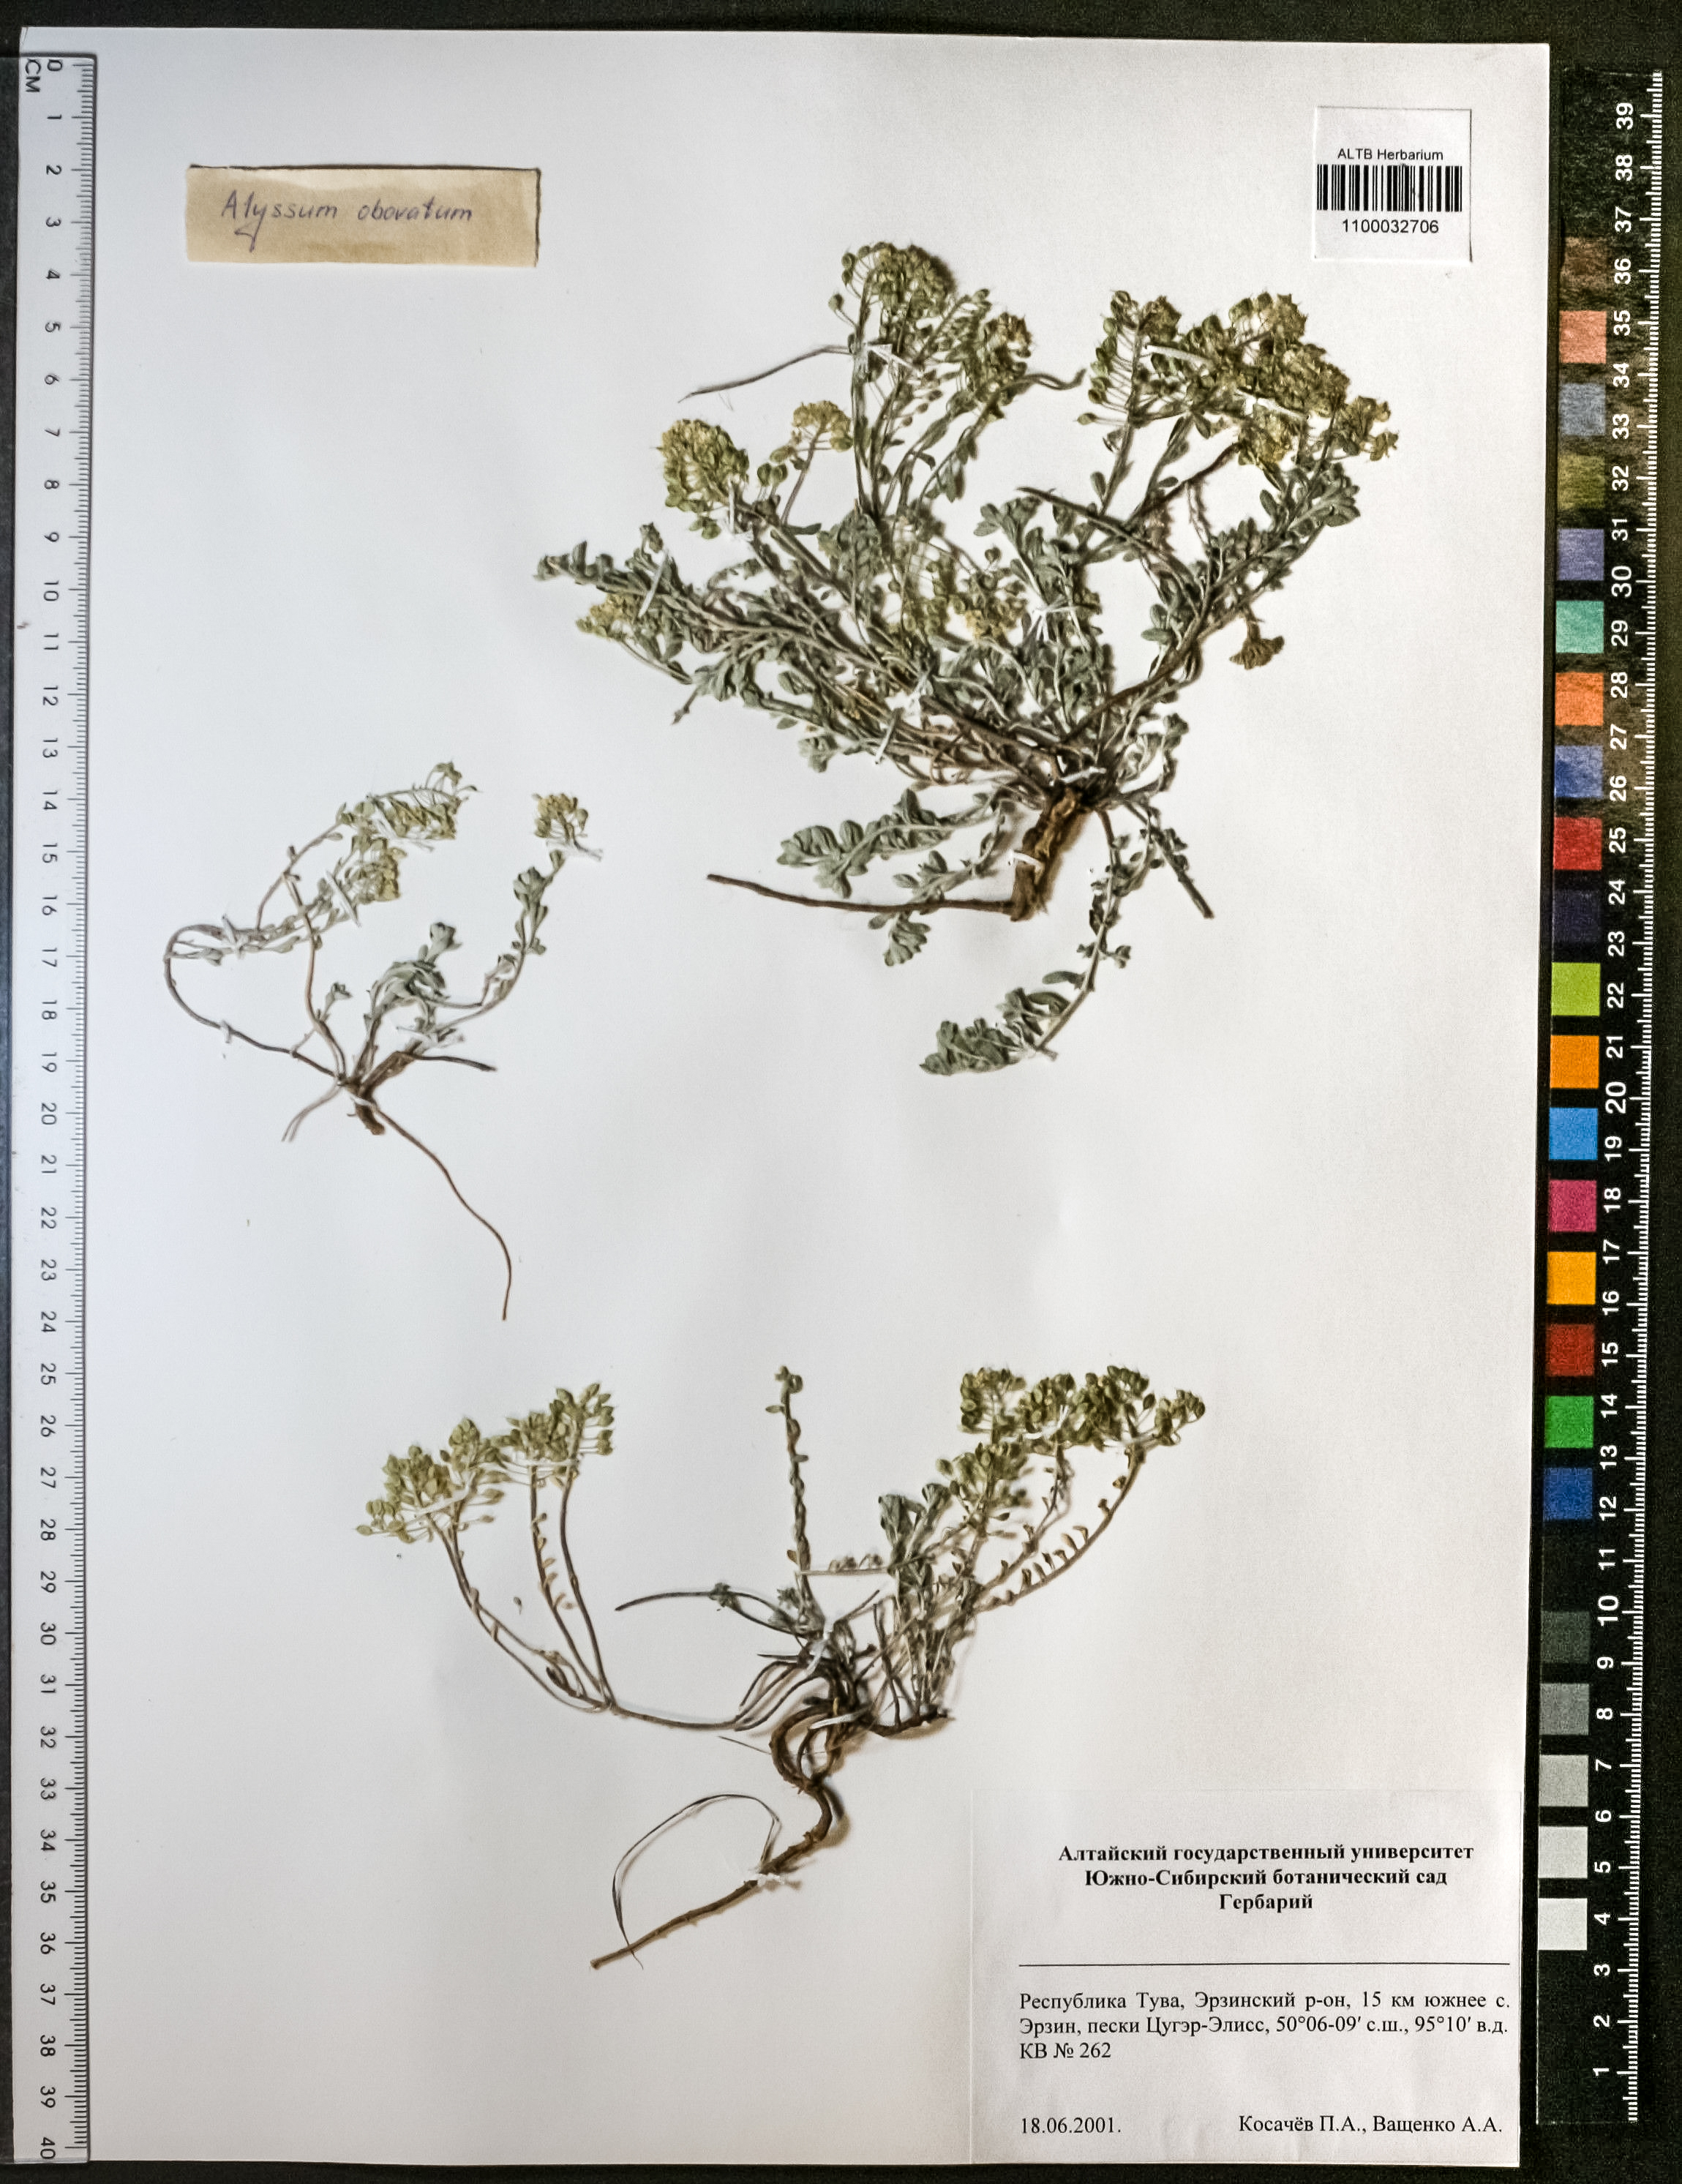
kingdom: Plantae
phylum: Tracheophyta
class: Magnoliopsida
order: Brassicales
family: Brassicaceae
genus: Odontarrhena
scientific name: Odontarrhena obovata
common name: American alyssum
